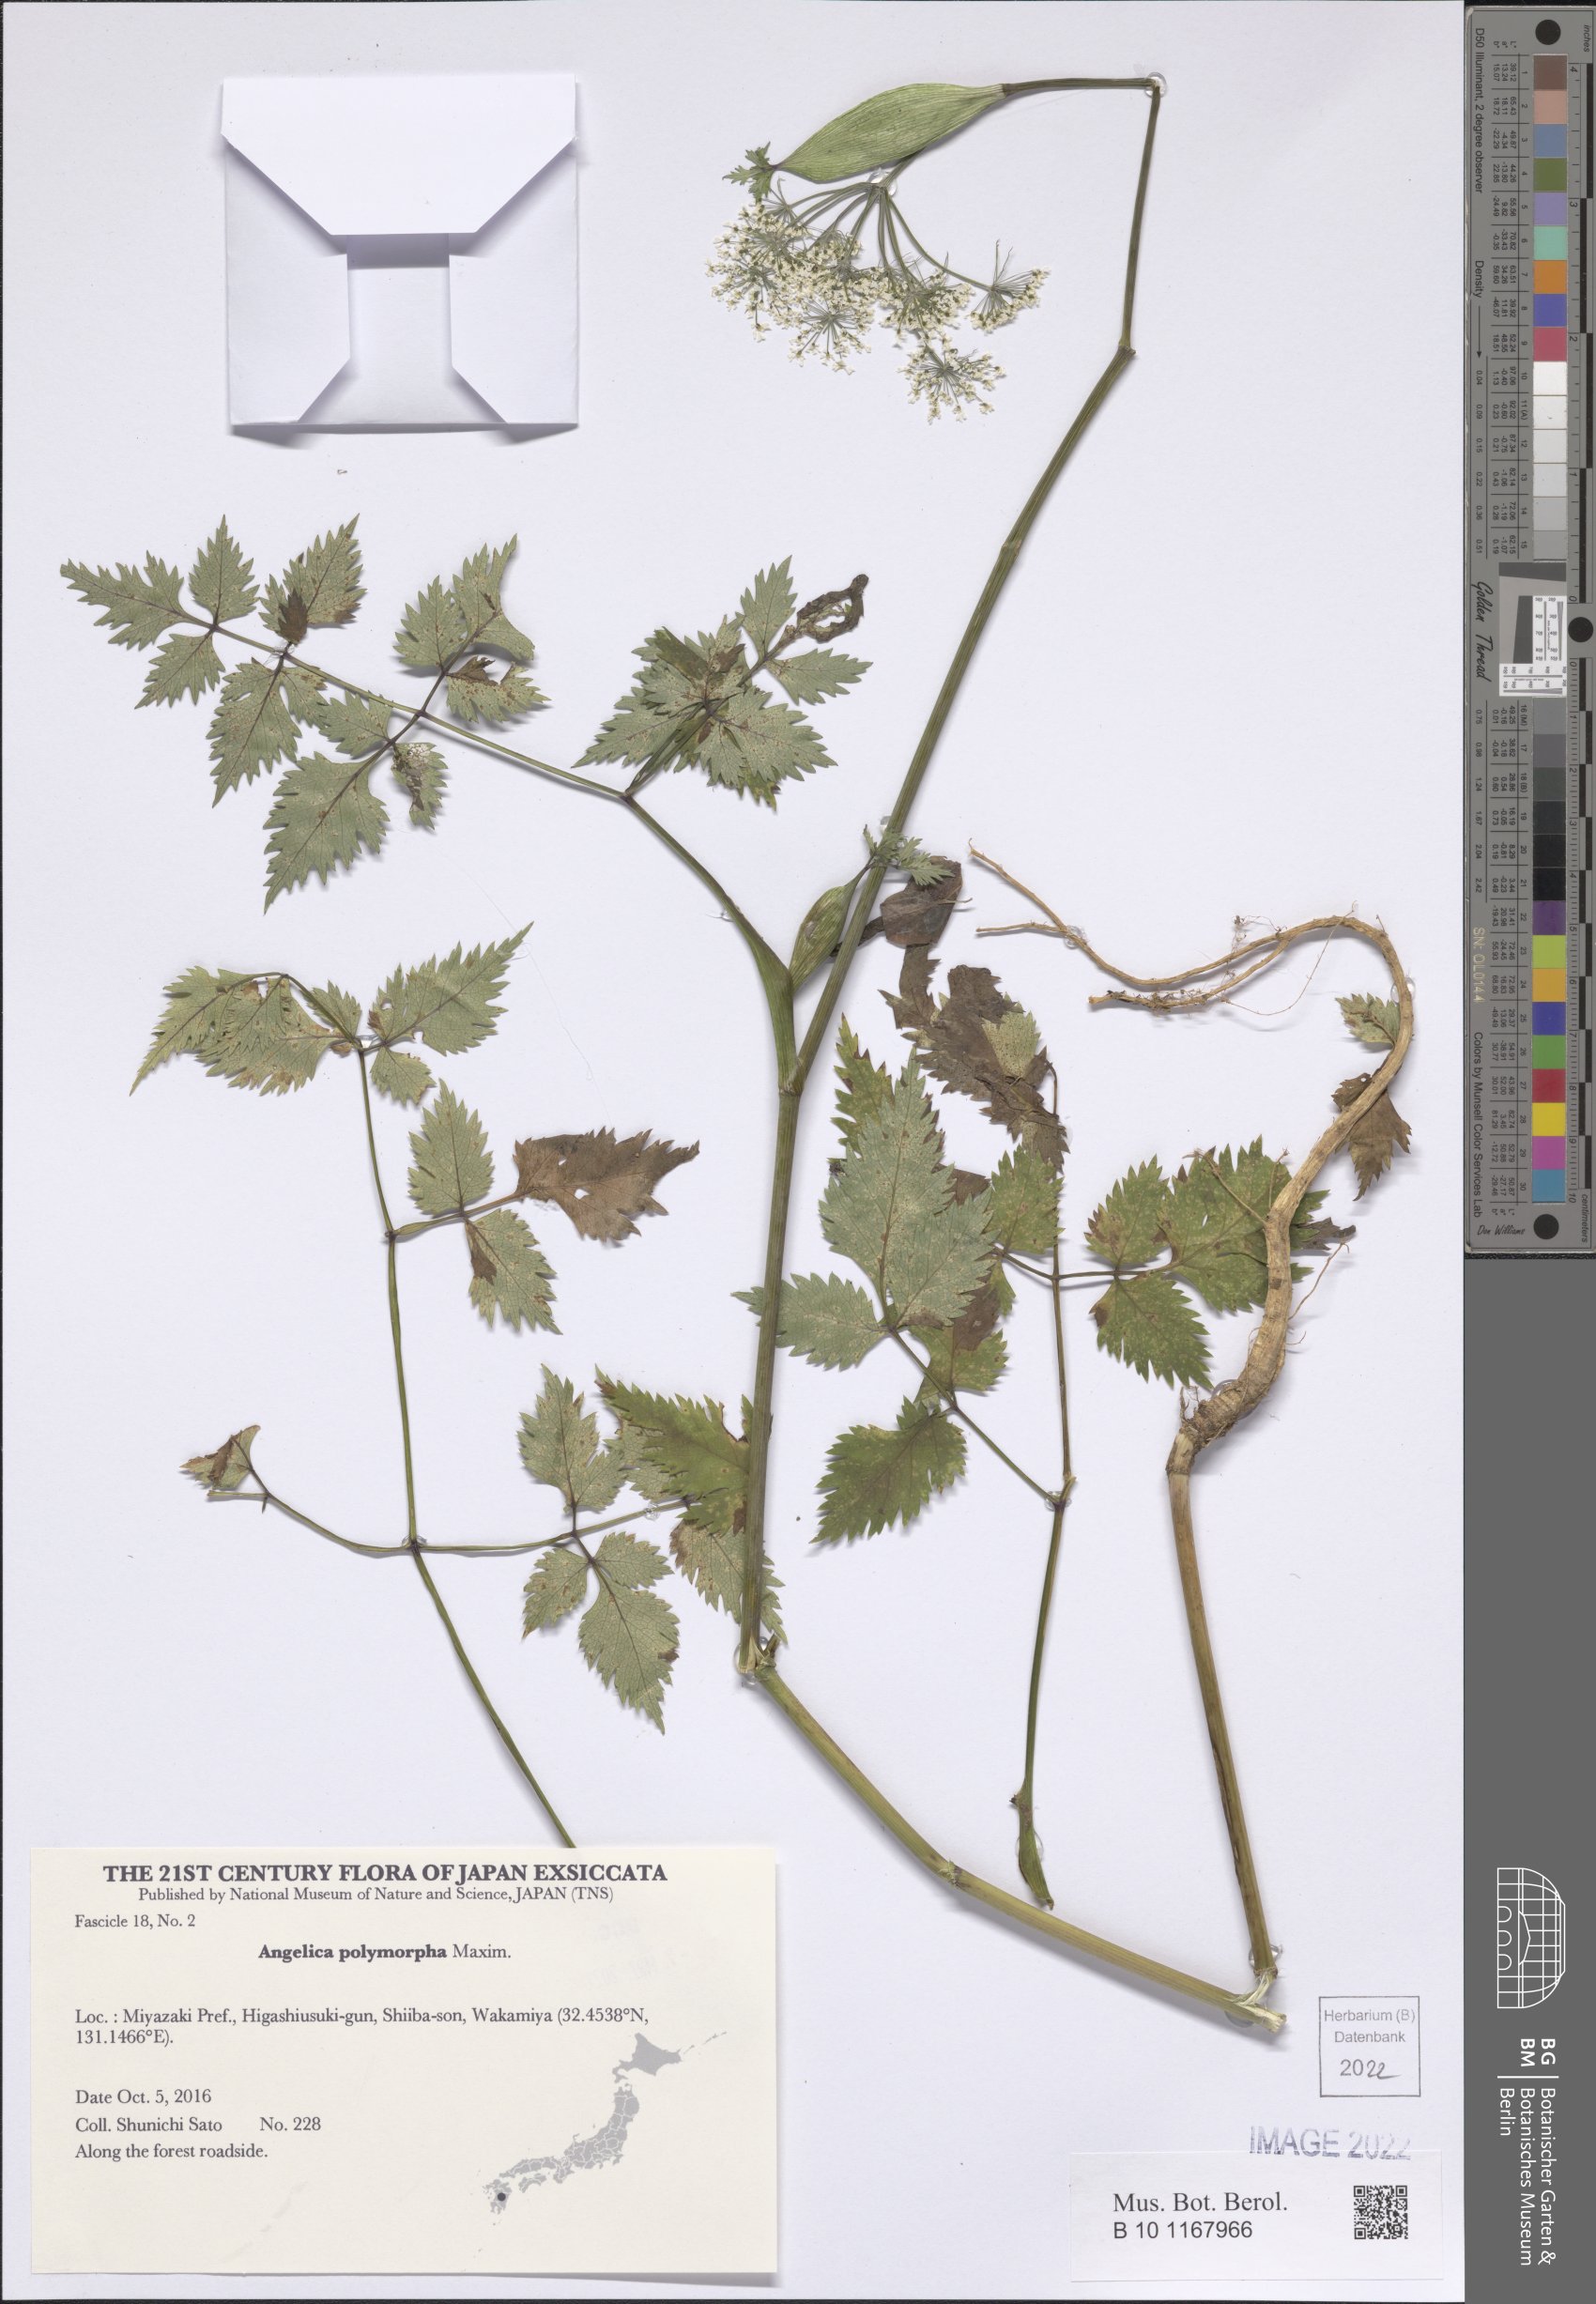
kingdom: Plantae
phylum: Tracheophyta
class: Magnoliopsida
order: Apiales
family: Apiaceae
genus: Angelica
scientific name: Angelica polymorpha
